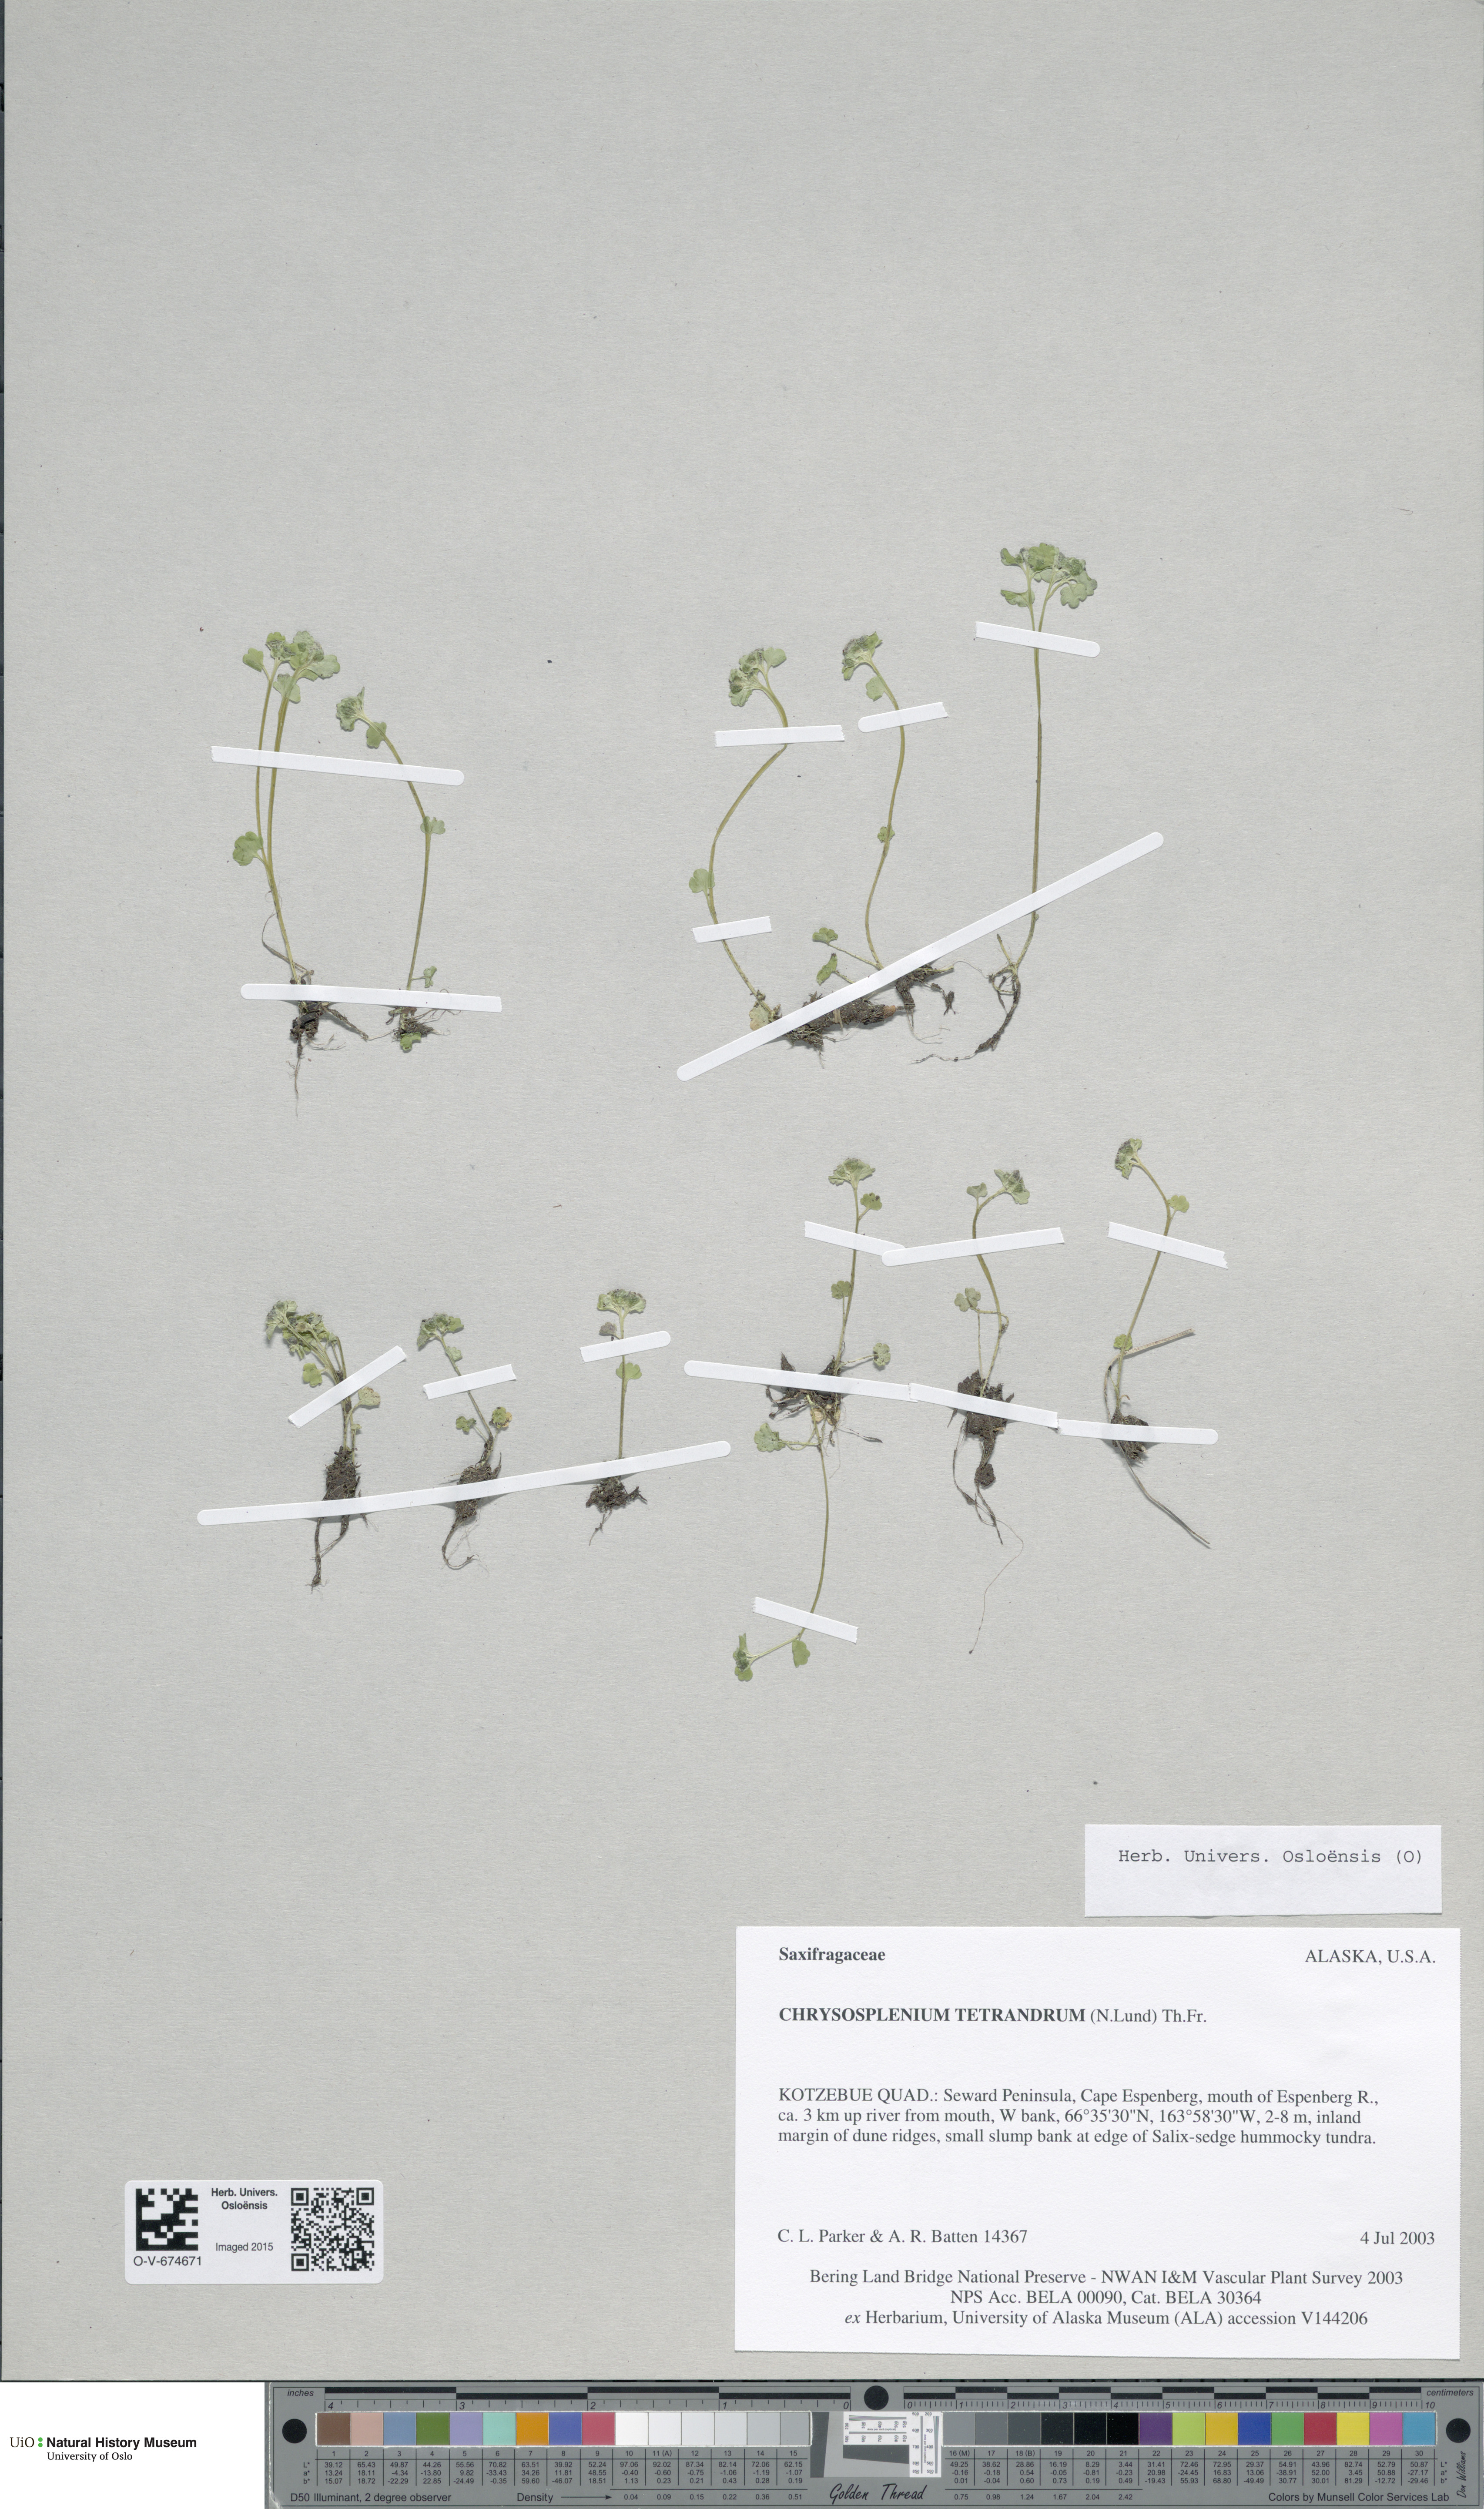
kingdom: Plantae
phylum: Tracheophyta
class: Magnoliopsida
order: Saxifragales
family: Saxifragaceae
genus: Chrysosplenium
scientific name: Chrysosplenium tetrandrum
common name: Green saxifrage
